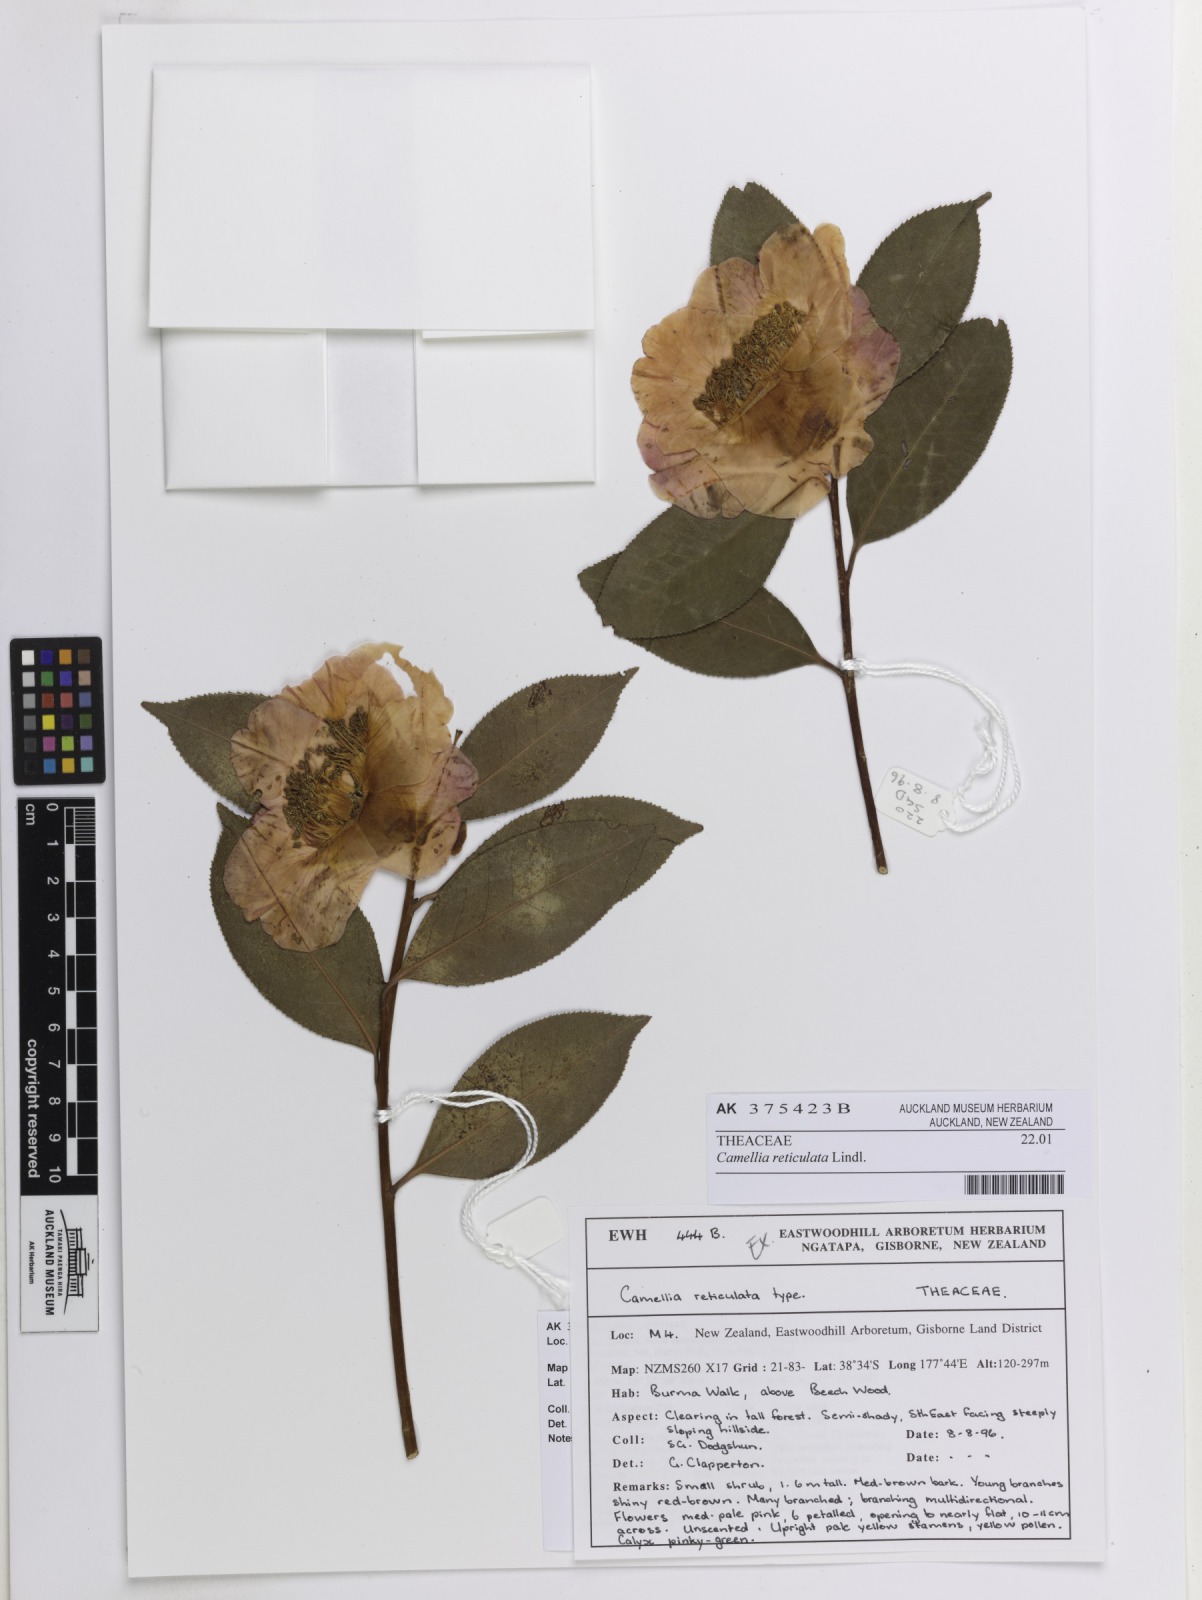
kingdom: Plantae
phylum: Tracheophyta
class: Magnoliopsida
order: Ericales
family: Theaceae
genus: Camellia
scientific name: Camellia reticulata
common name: To-tsubaki
